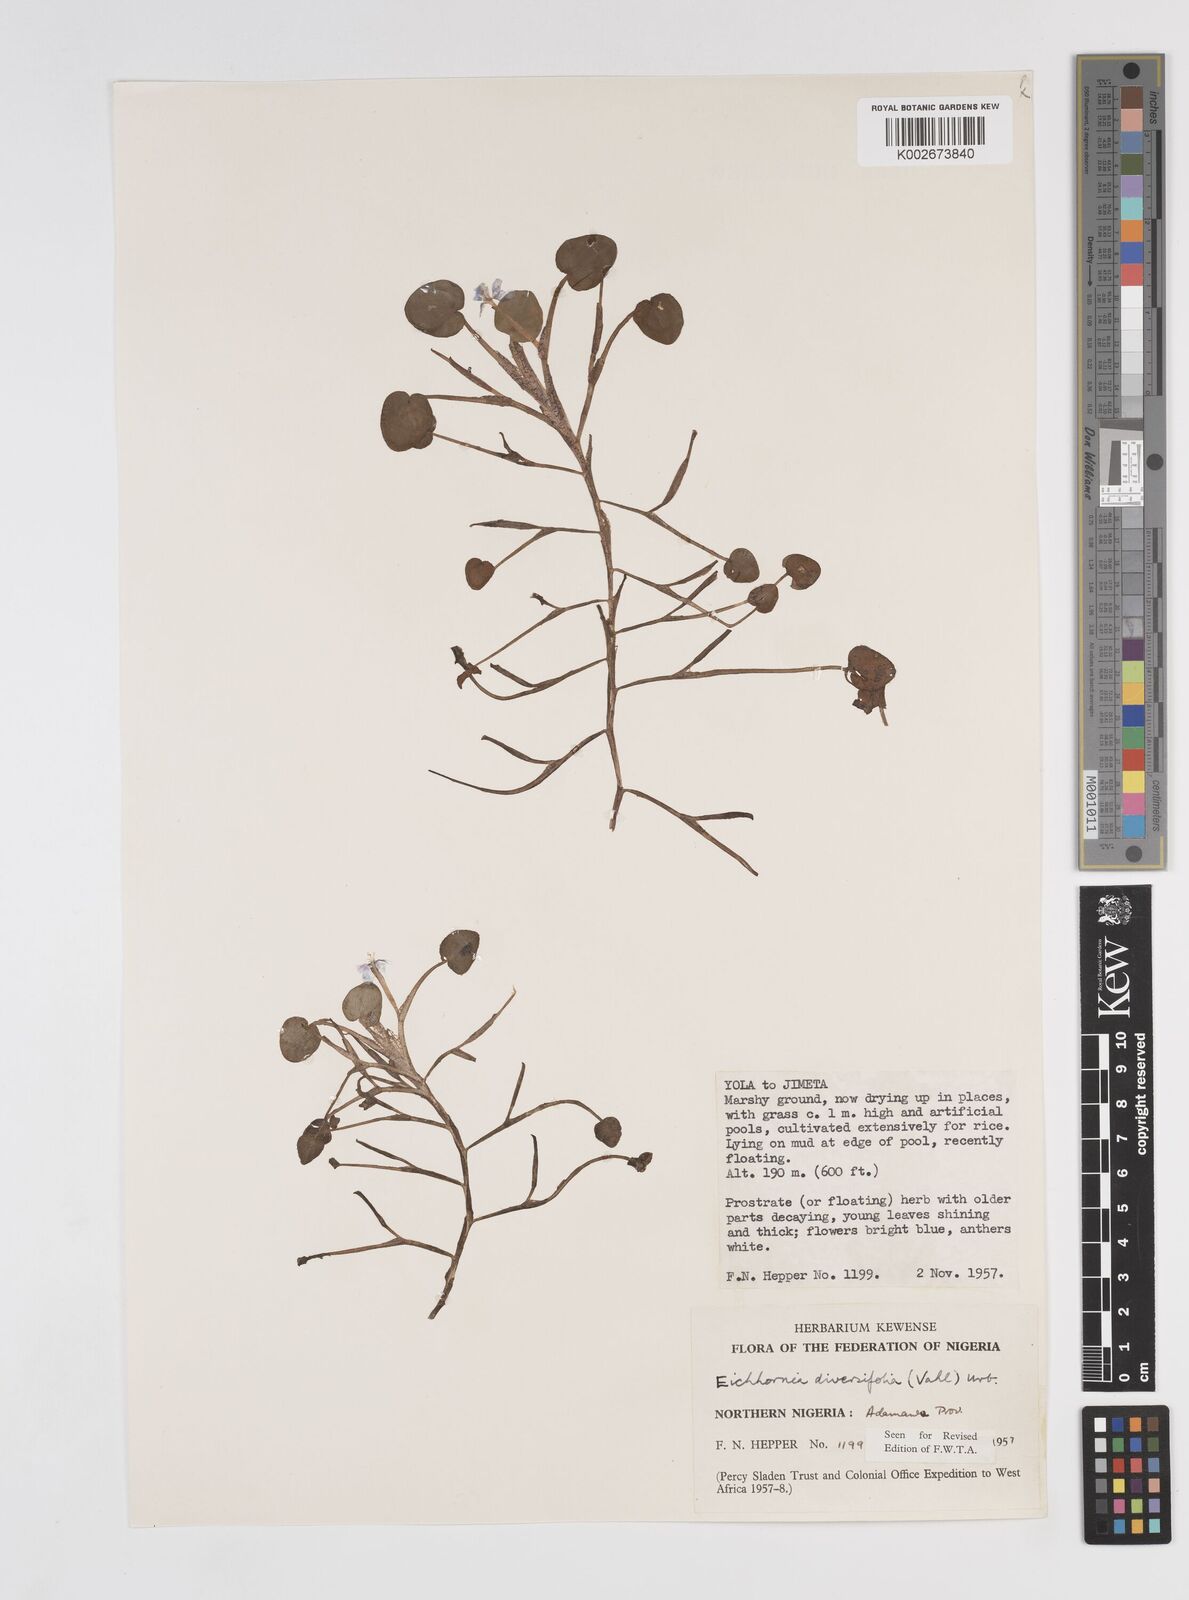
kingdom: Plantae
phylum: Tracheophyta
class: Liliopsida
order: Commelinales
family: Pontederiaceae
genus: Pontederia
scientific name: Pontederia diversifolia
